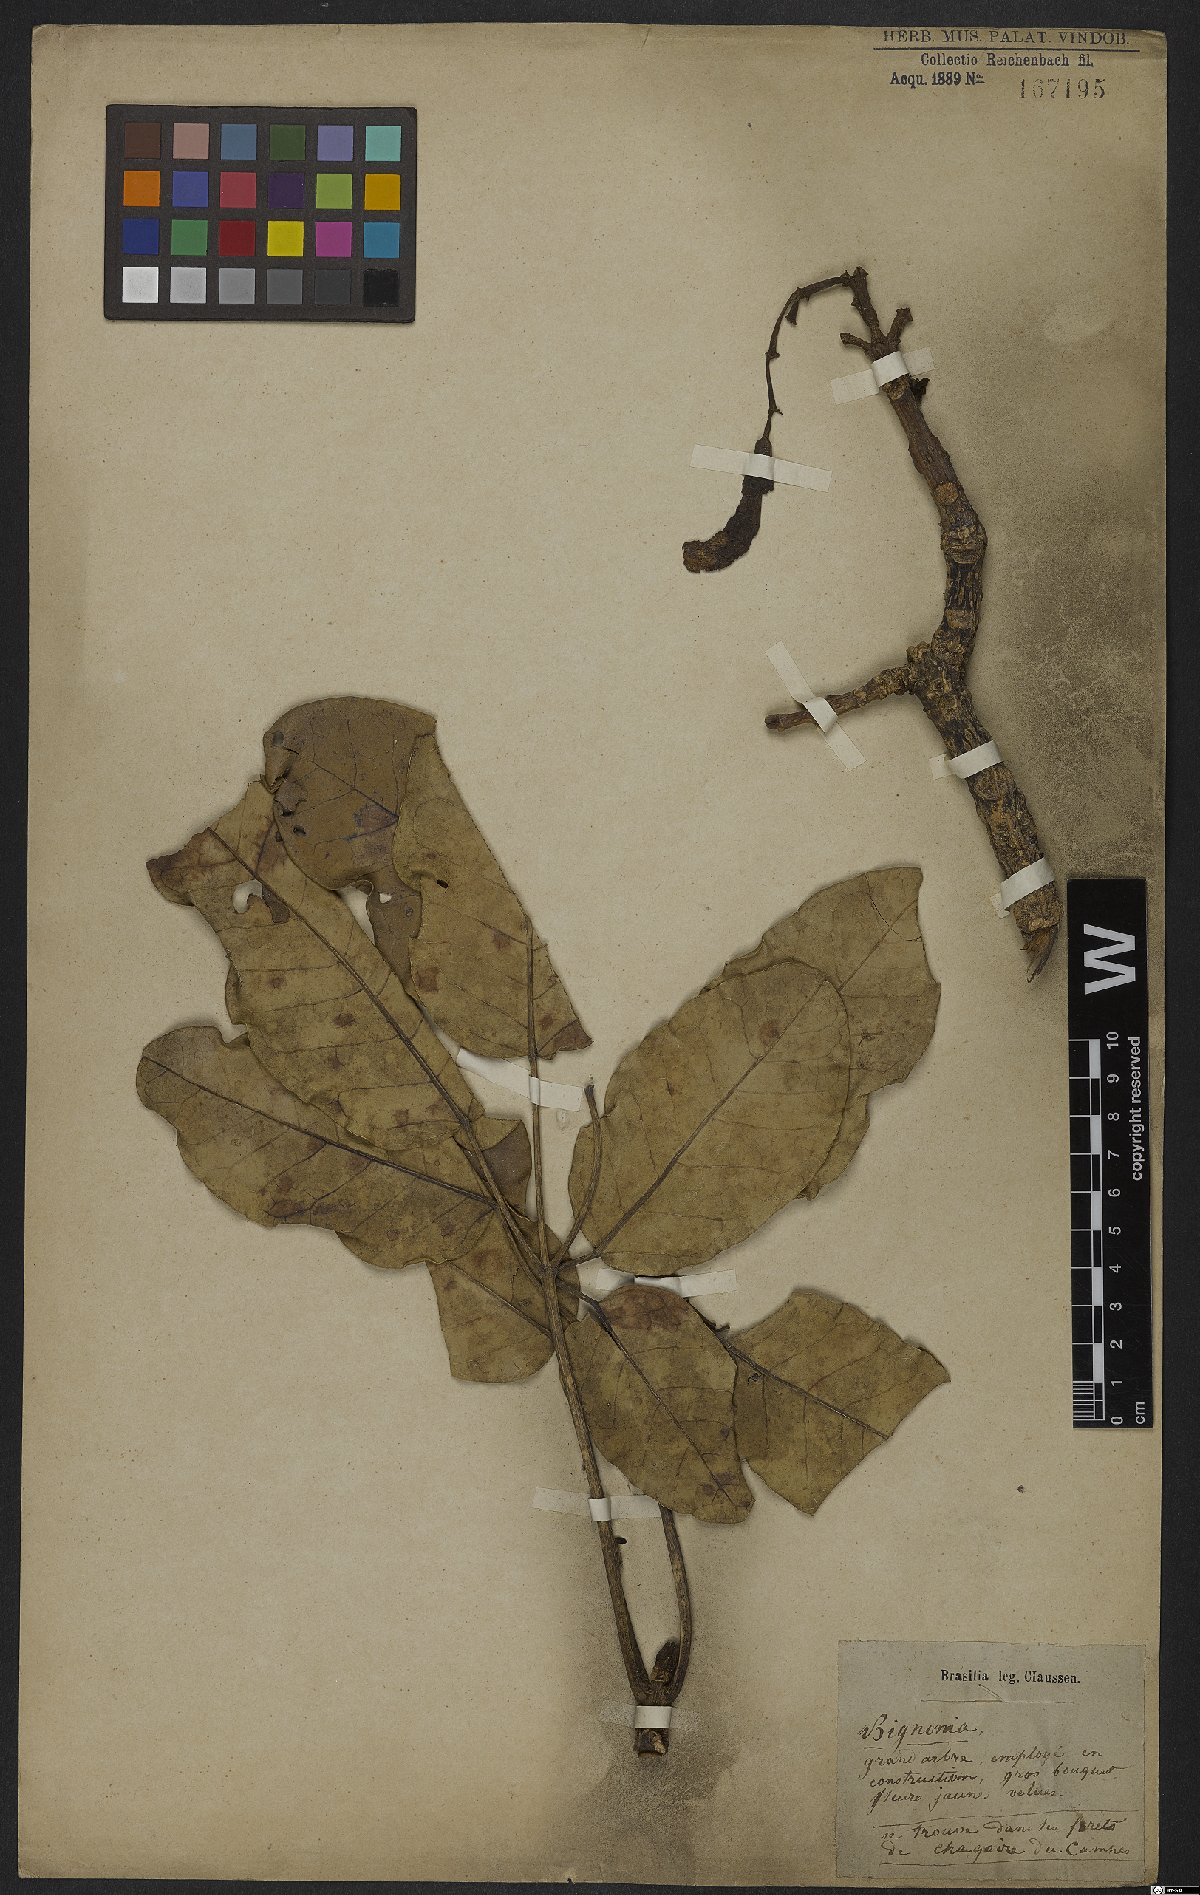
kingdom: Plantae
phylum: Tracheophyta
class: Magnoliopsida
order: Lamiales
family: Bignoniaceae
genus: Tabebuia
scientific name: Tabebuia aurea
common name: Caribbean trumpet-tree
